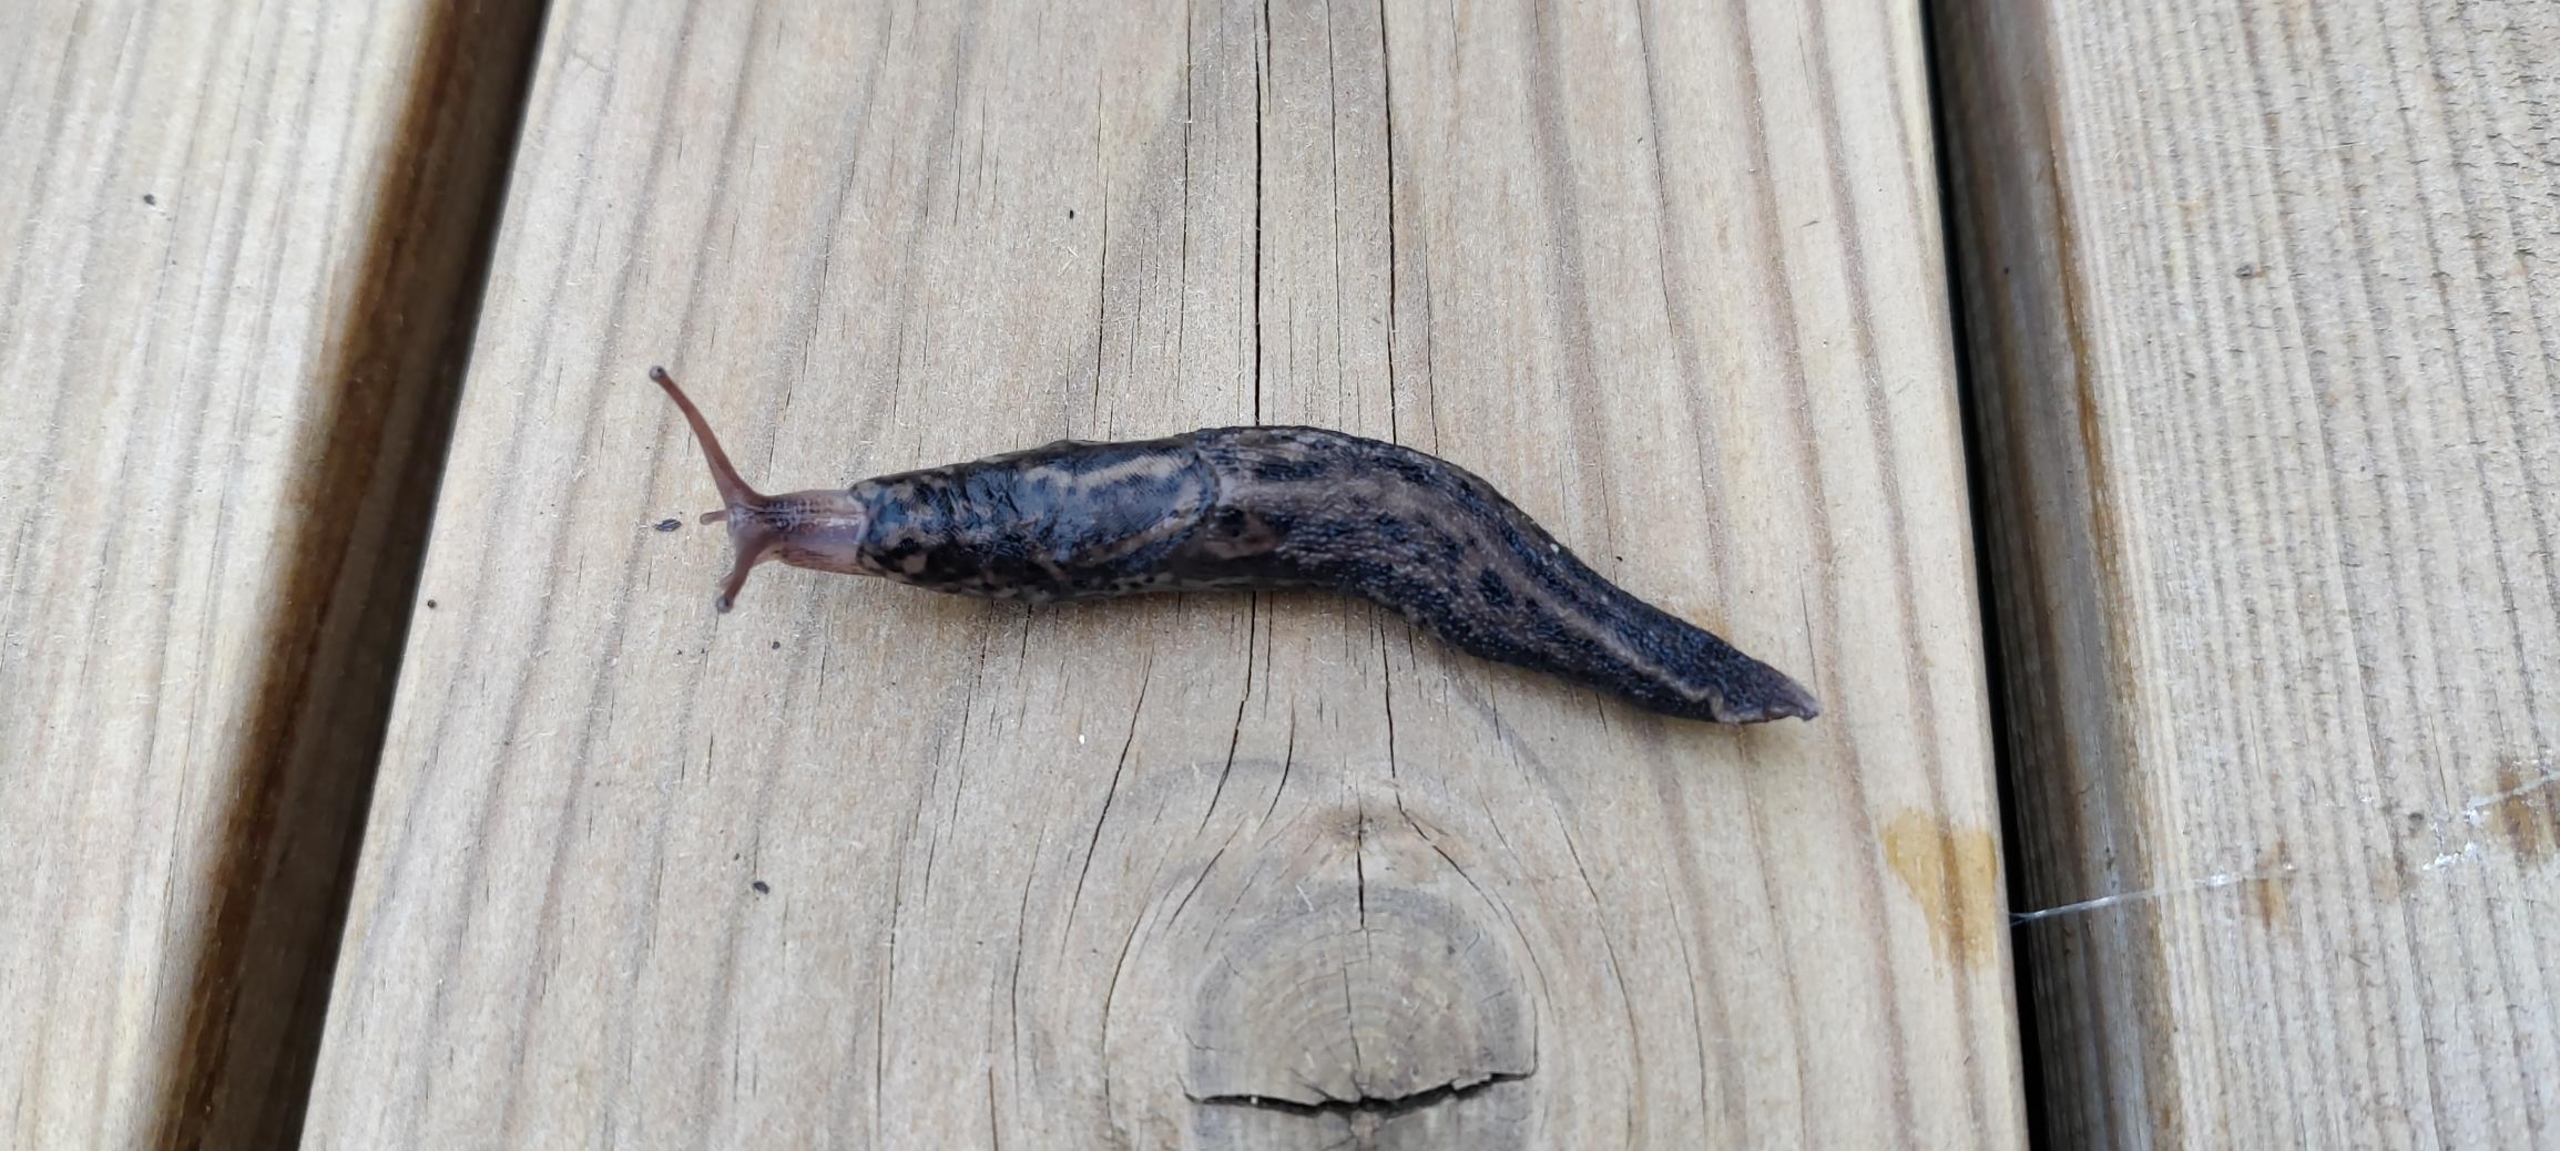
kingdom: Animalia
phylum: Mollusca
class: Gastropoda
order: Stylommatophora
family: Limacidae
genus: Limax
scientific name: Limax maximus
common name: Pantersnegl
